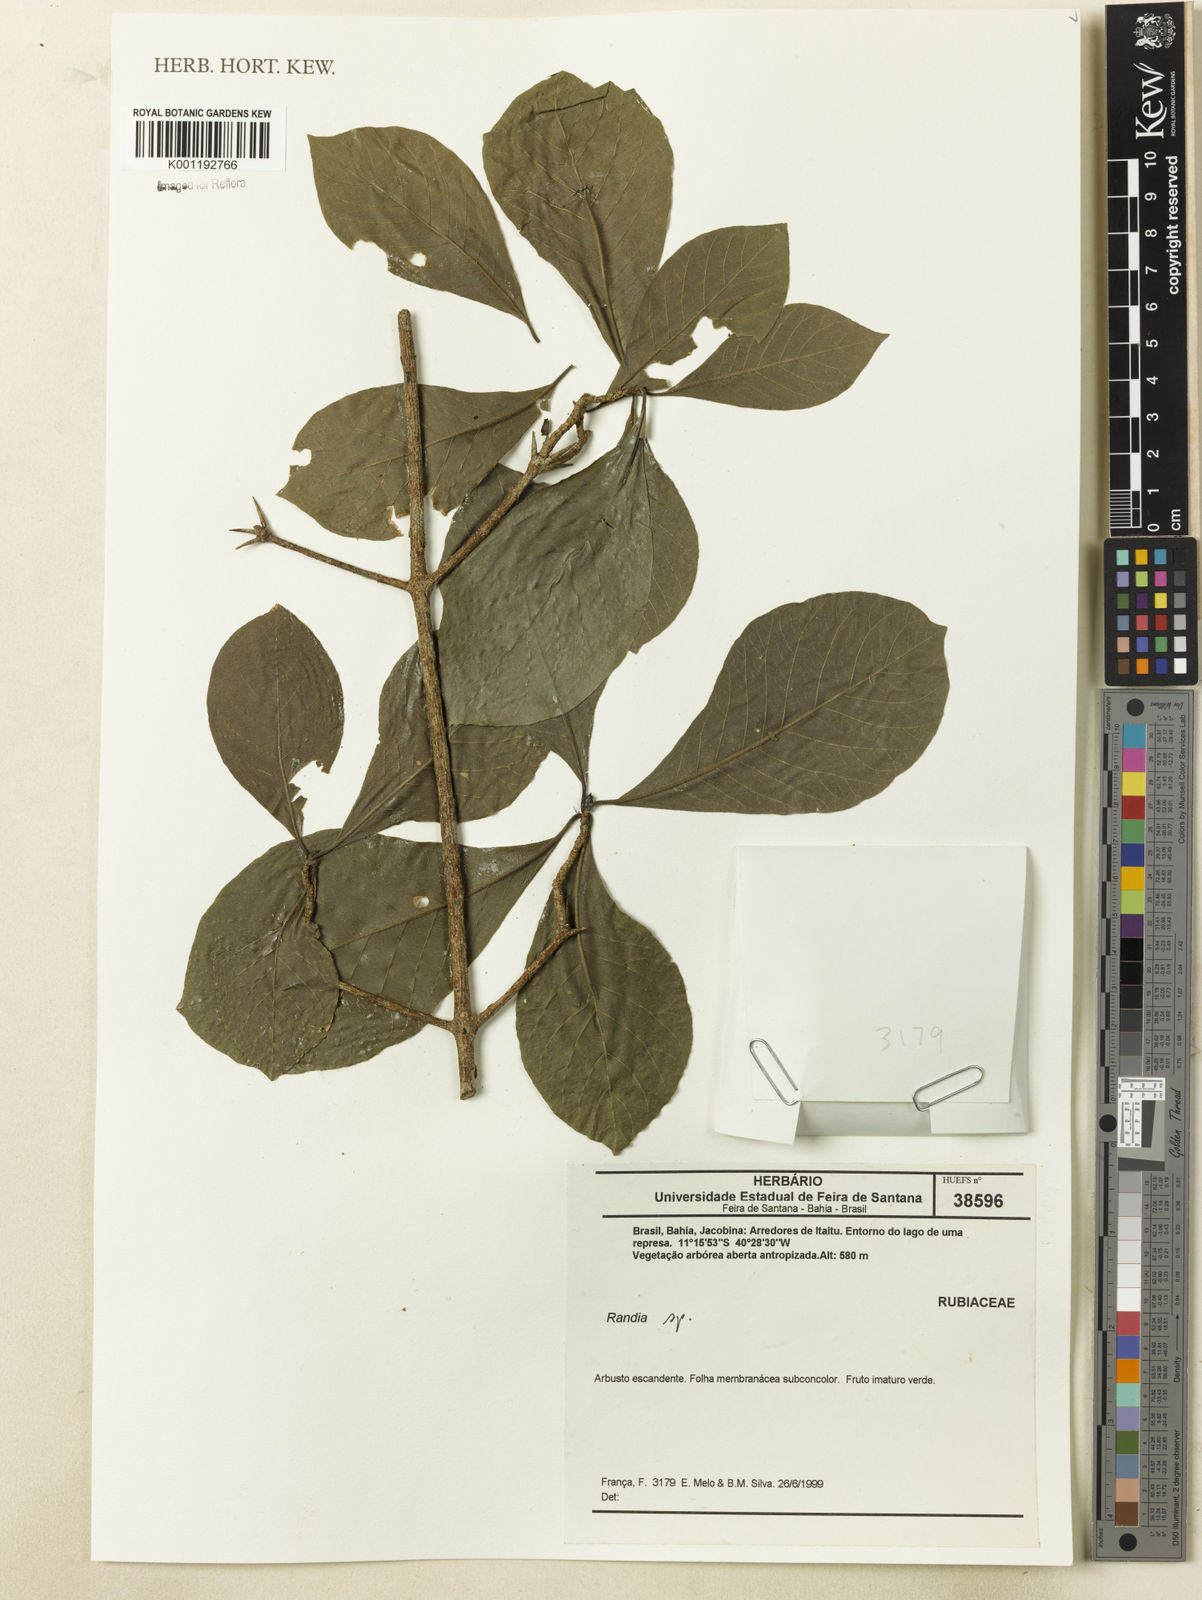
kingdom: Plantae
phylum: Tracheophyta
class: Magnoliopsida
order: Gentianales
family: Rubiaceae
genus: Randia
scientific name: Randia
